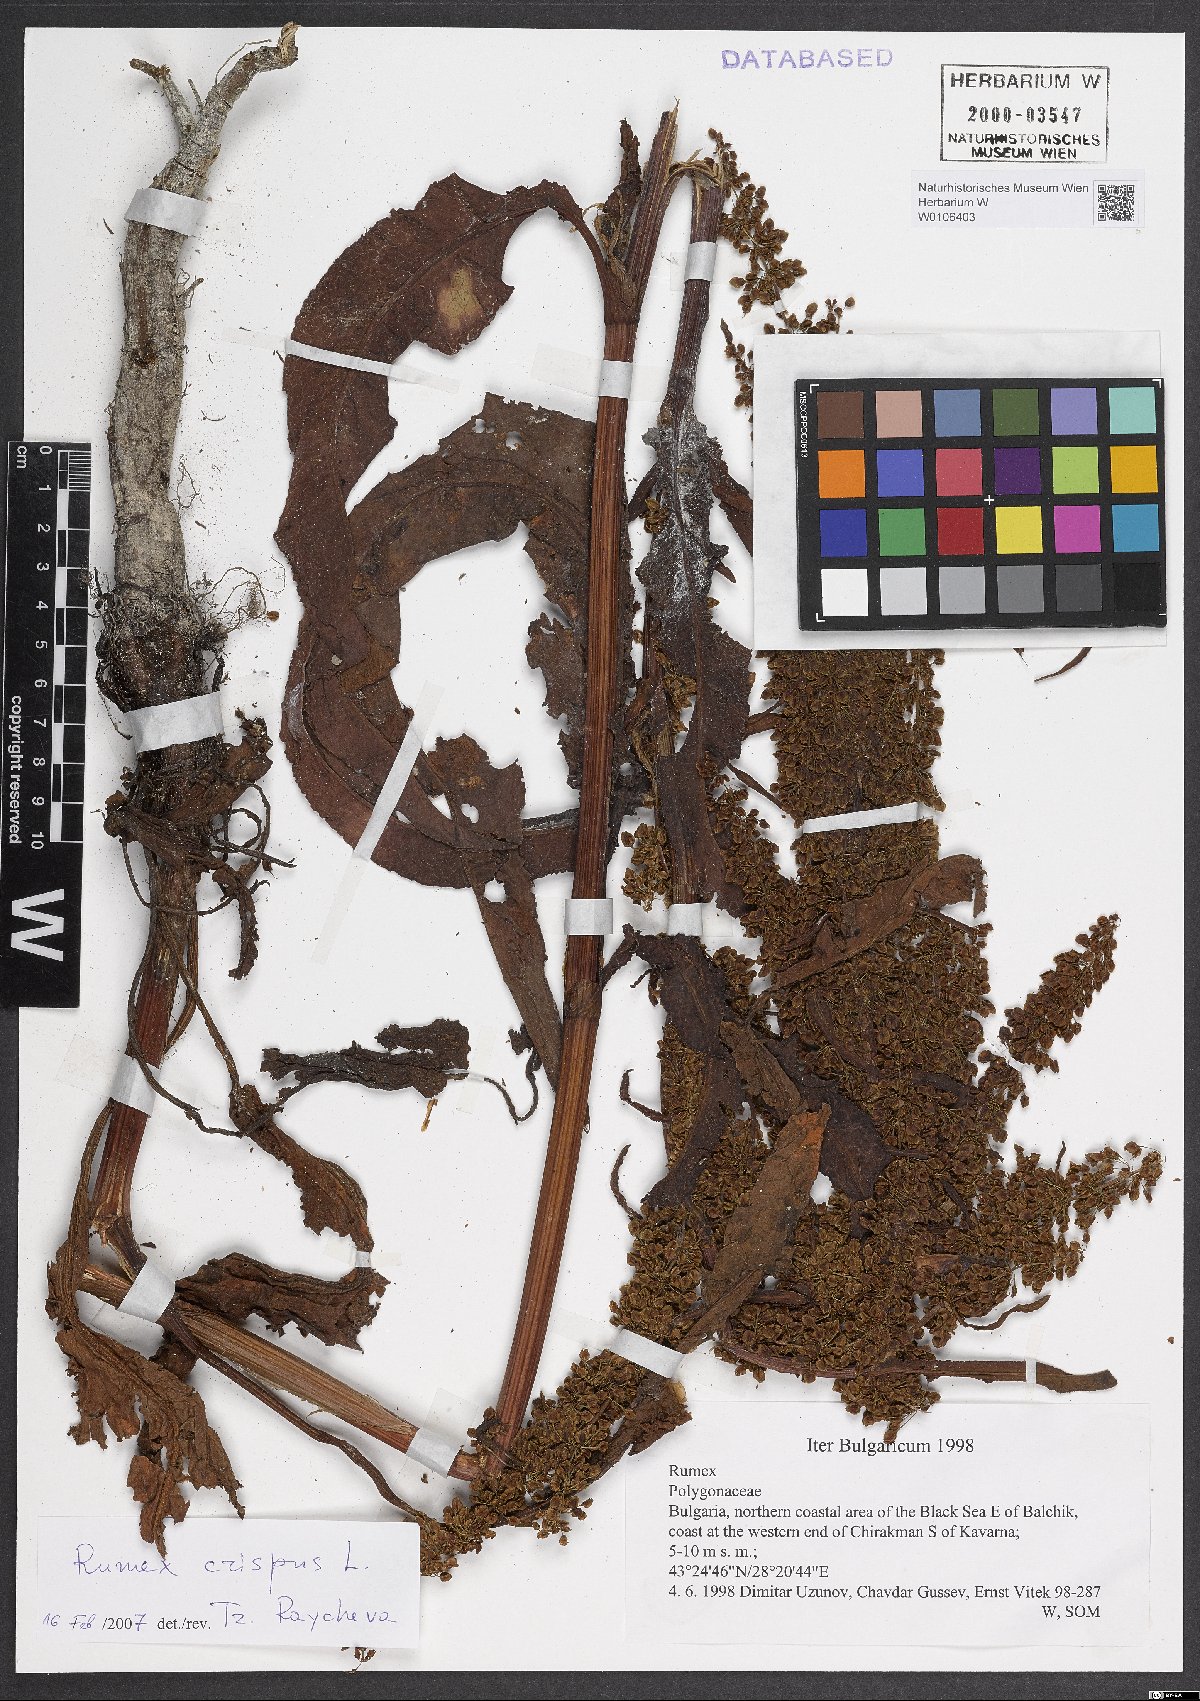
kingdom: Plantae
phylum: Tracheophyta
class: Magnoliopsida
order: Caryophyllales
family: Polygonaceae
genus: Rumex
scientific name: Rumex crispus
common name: Curled dock
